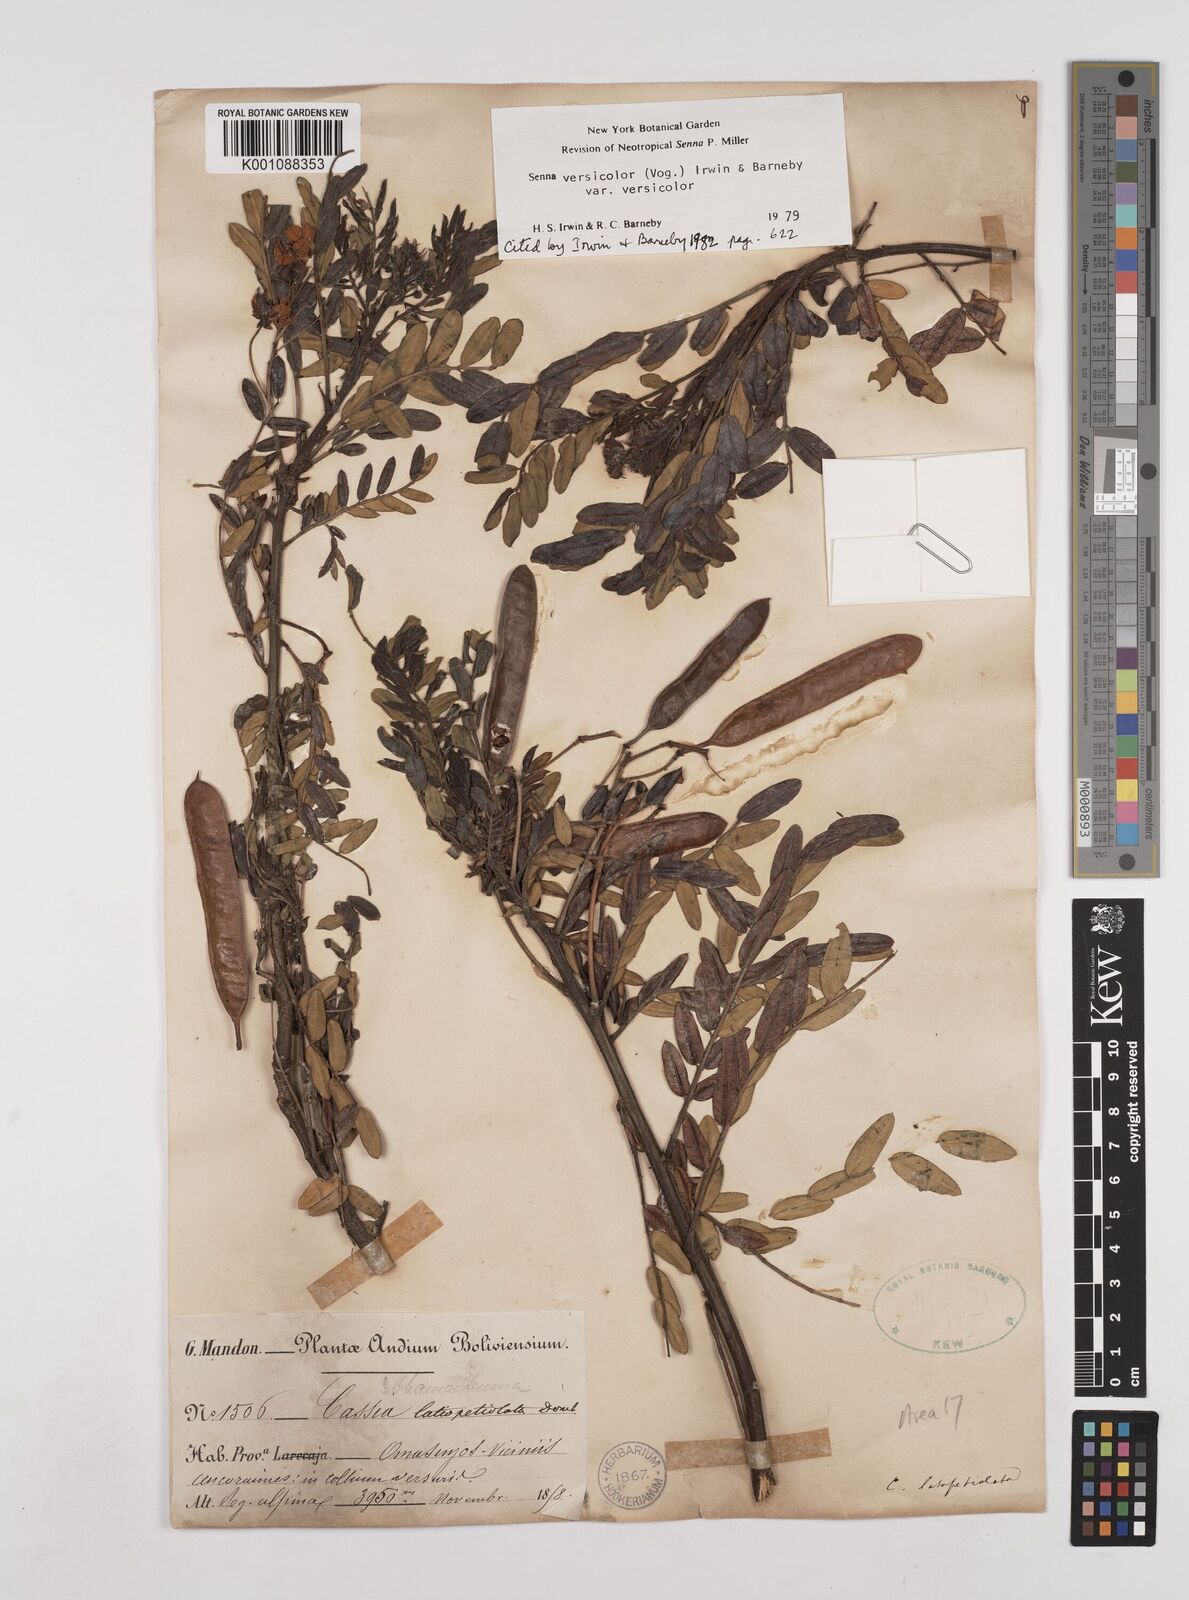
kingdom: Plantae
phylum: Tracheophyta
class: Magnoliopsida
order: Fabales
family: Fabaceae
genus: Senna
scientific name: Senna versicolor
